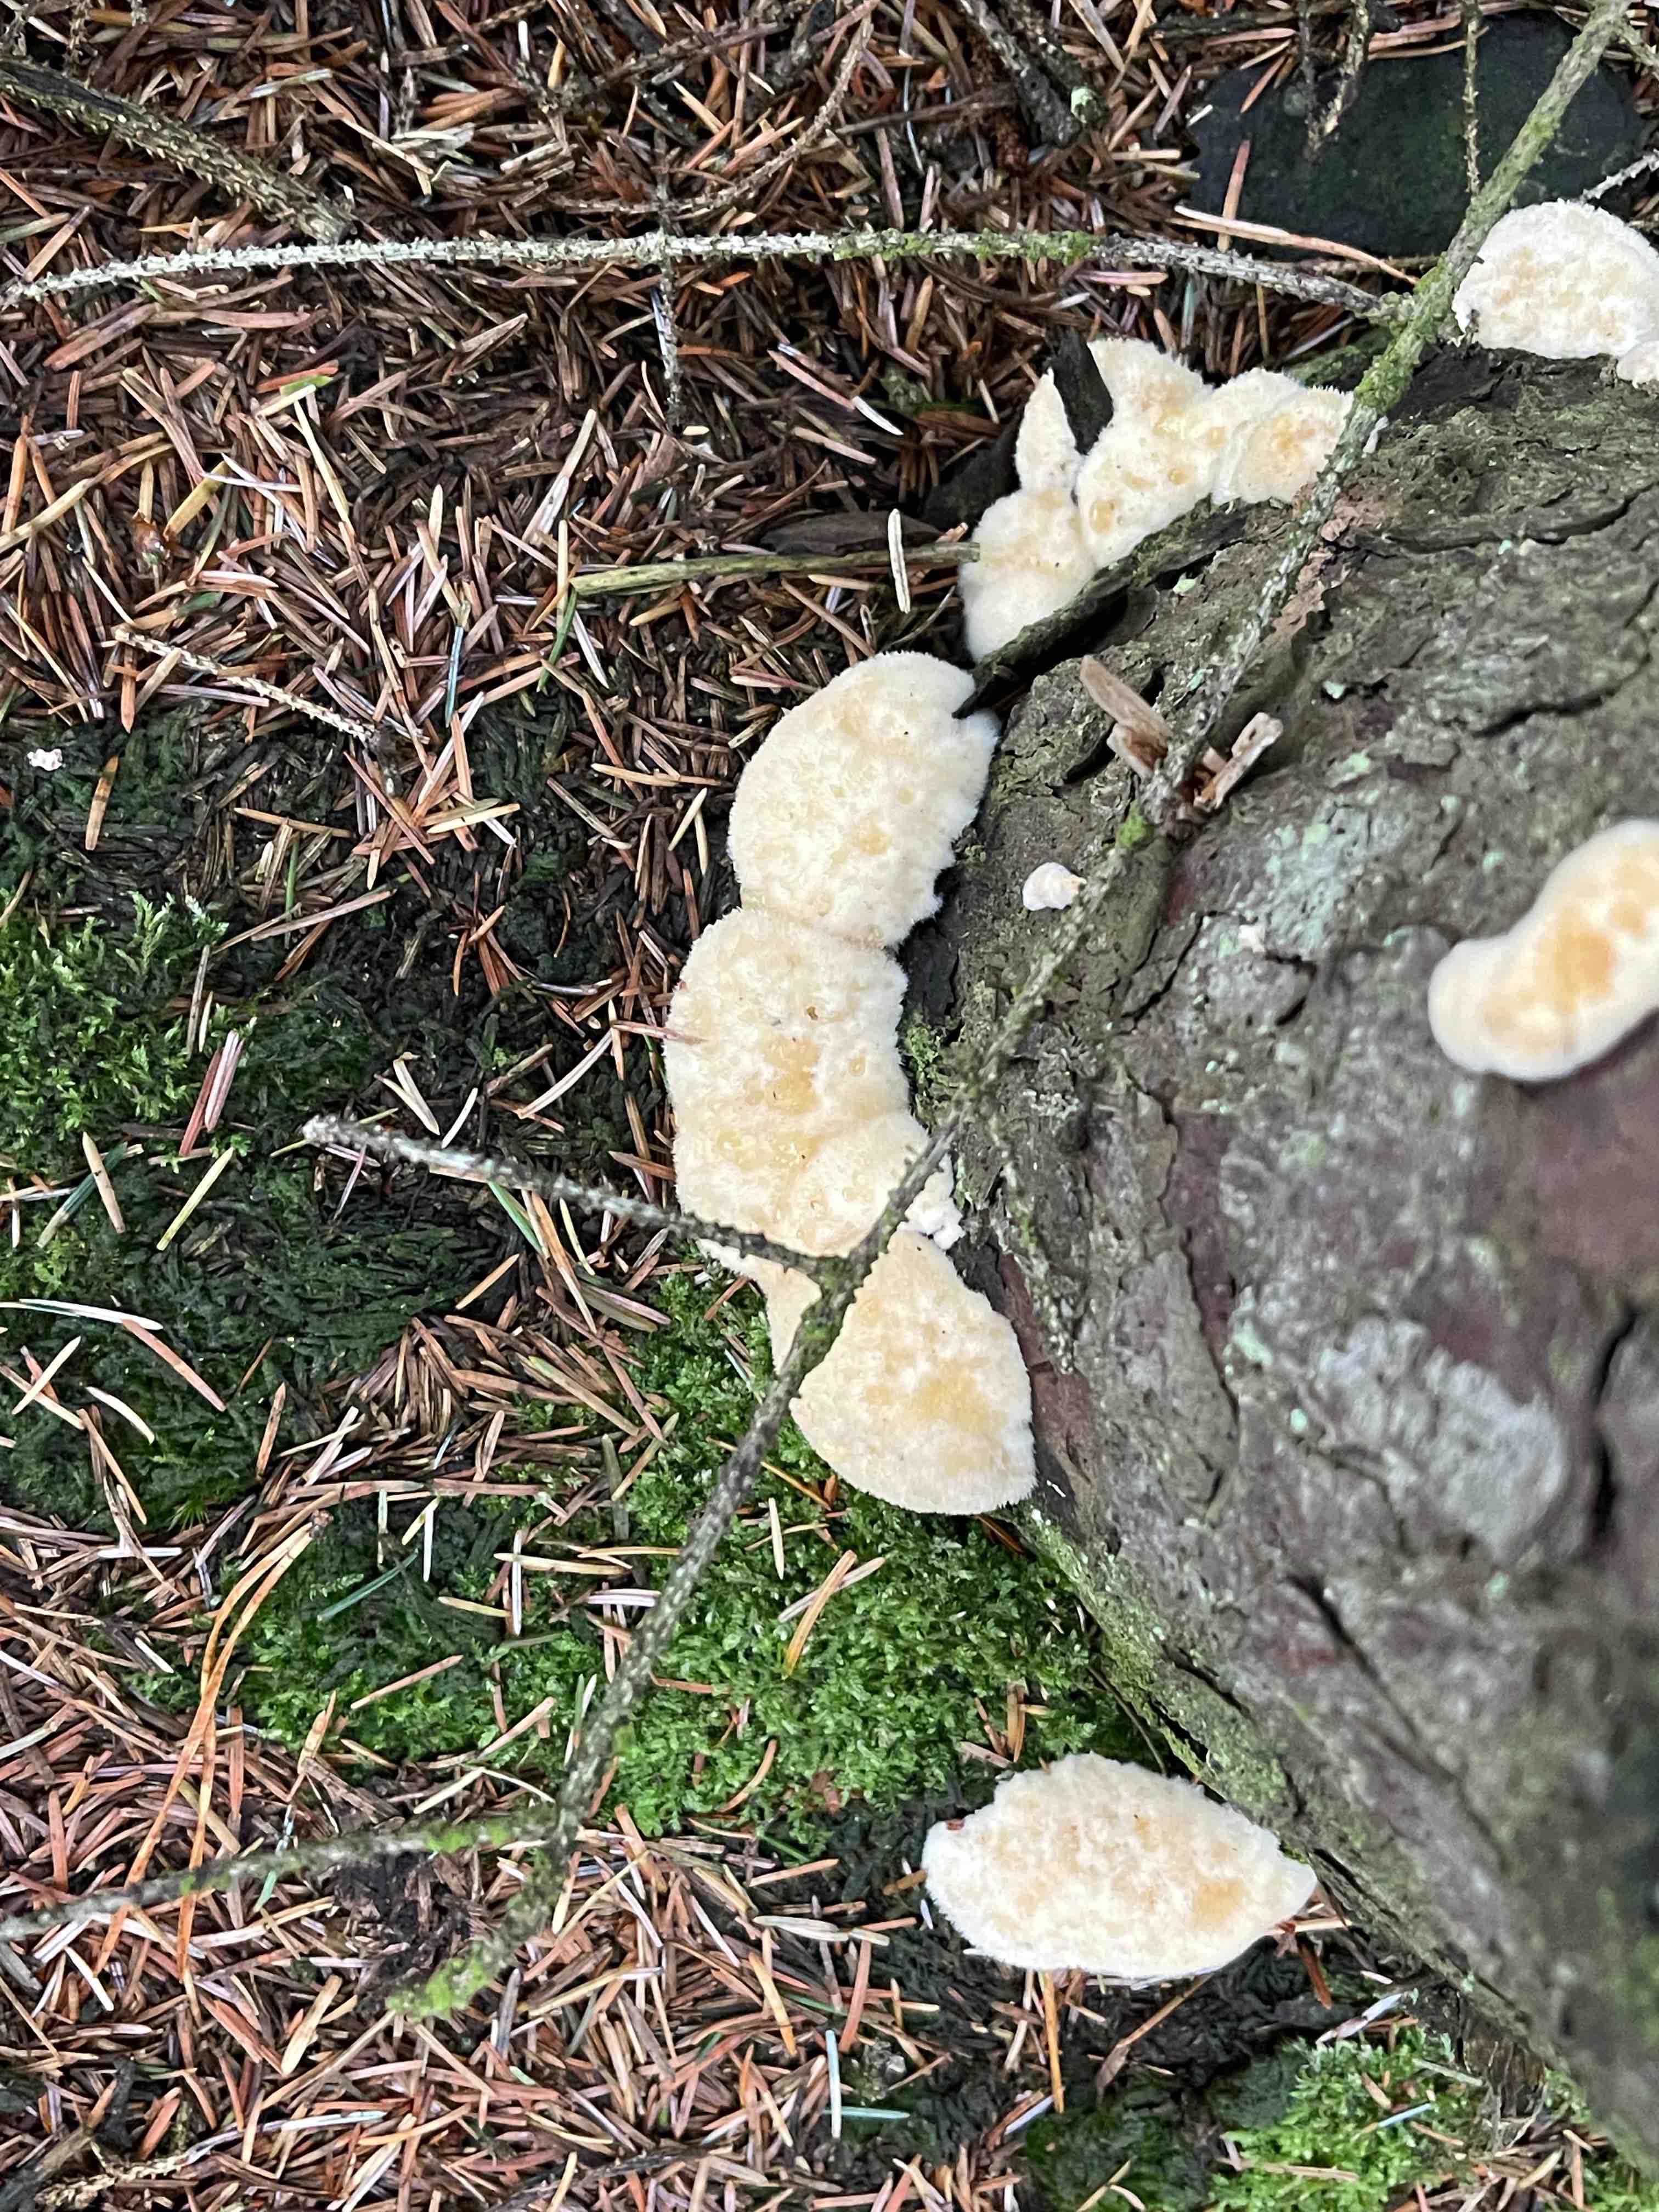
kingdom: Fungi
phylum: Basidiomycota
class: Agaricomycetes
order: Polyporales
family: Dacryobolaceae
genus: Postia
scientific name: Postia ptychogaster
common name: støvende kødporesvamp
